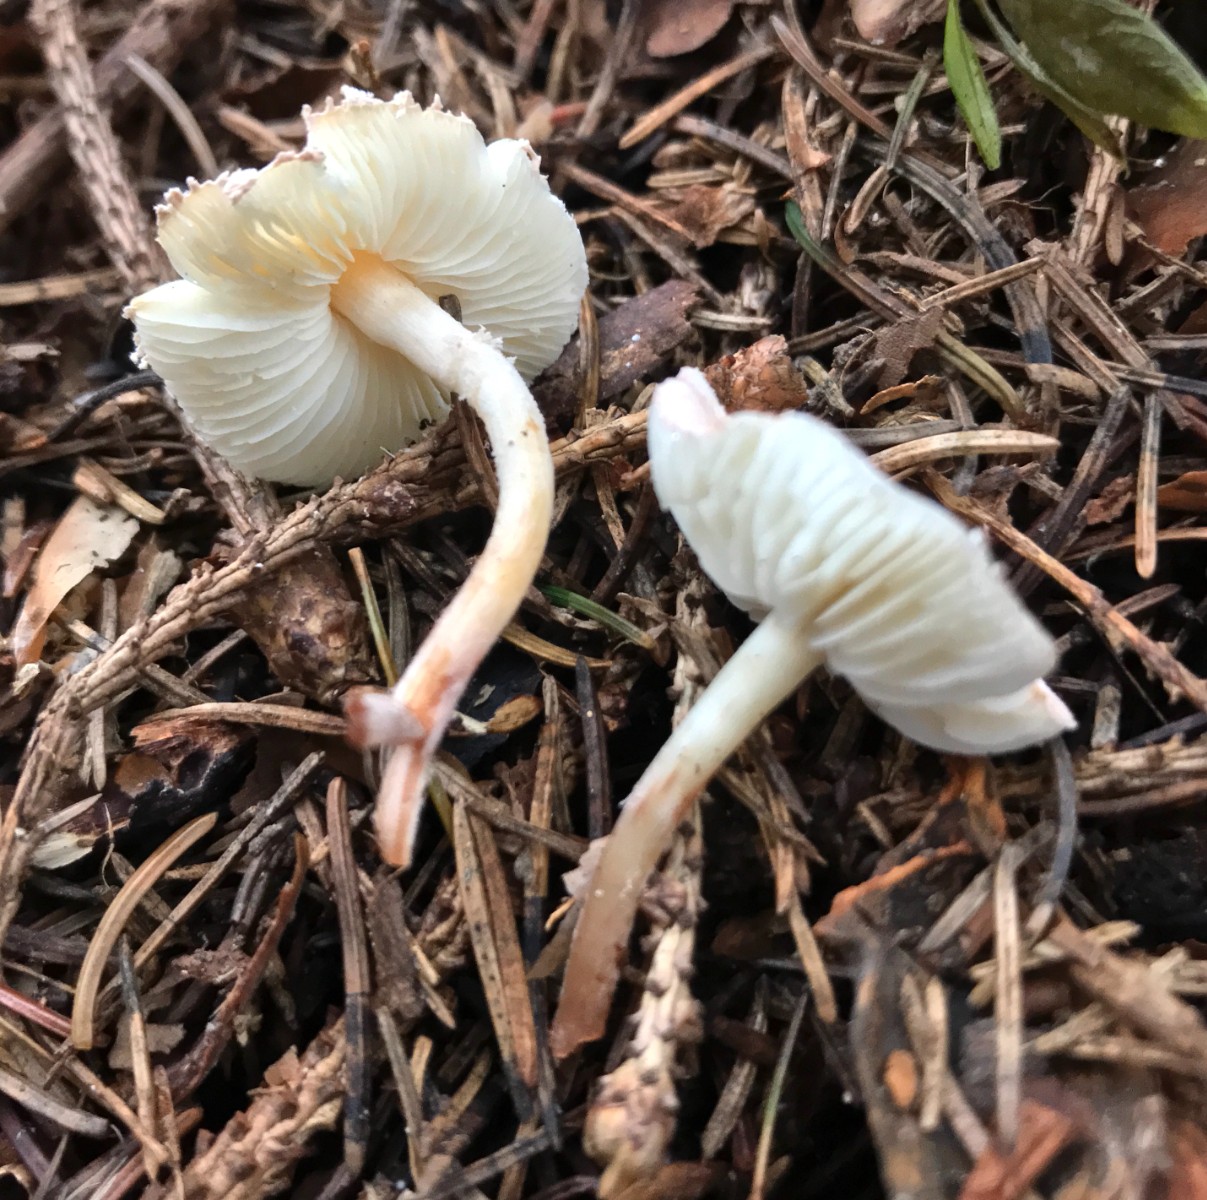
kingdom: Fungi
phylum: Basidiomycota
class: Agaricomycetes
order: Agaricales
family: Agaricaceae
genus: Cystolepiota
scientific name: Cystolepiota seminuda
